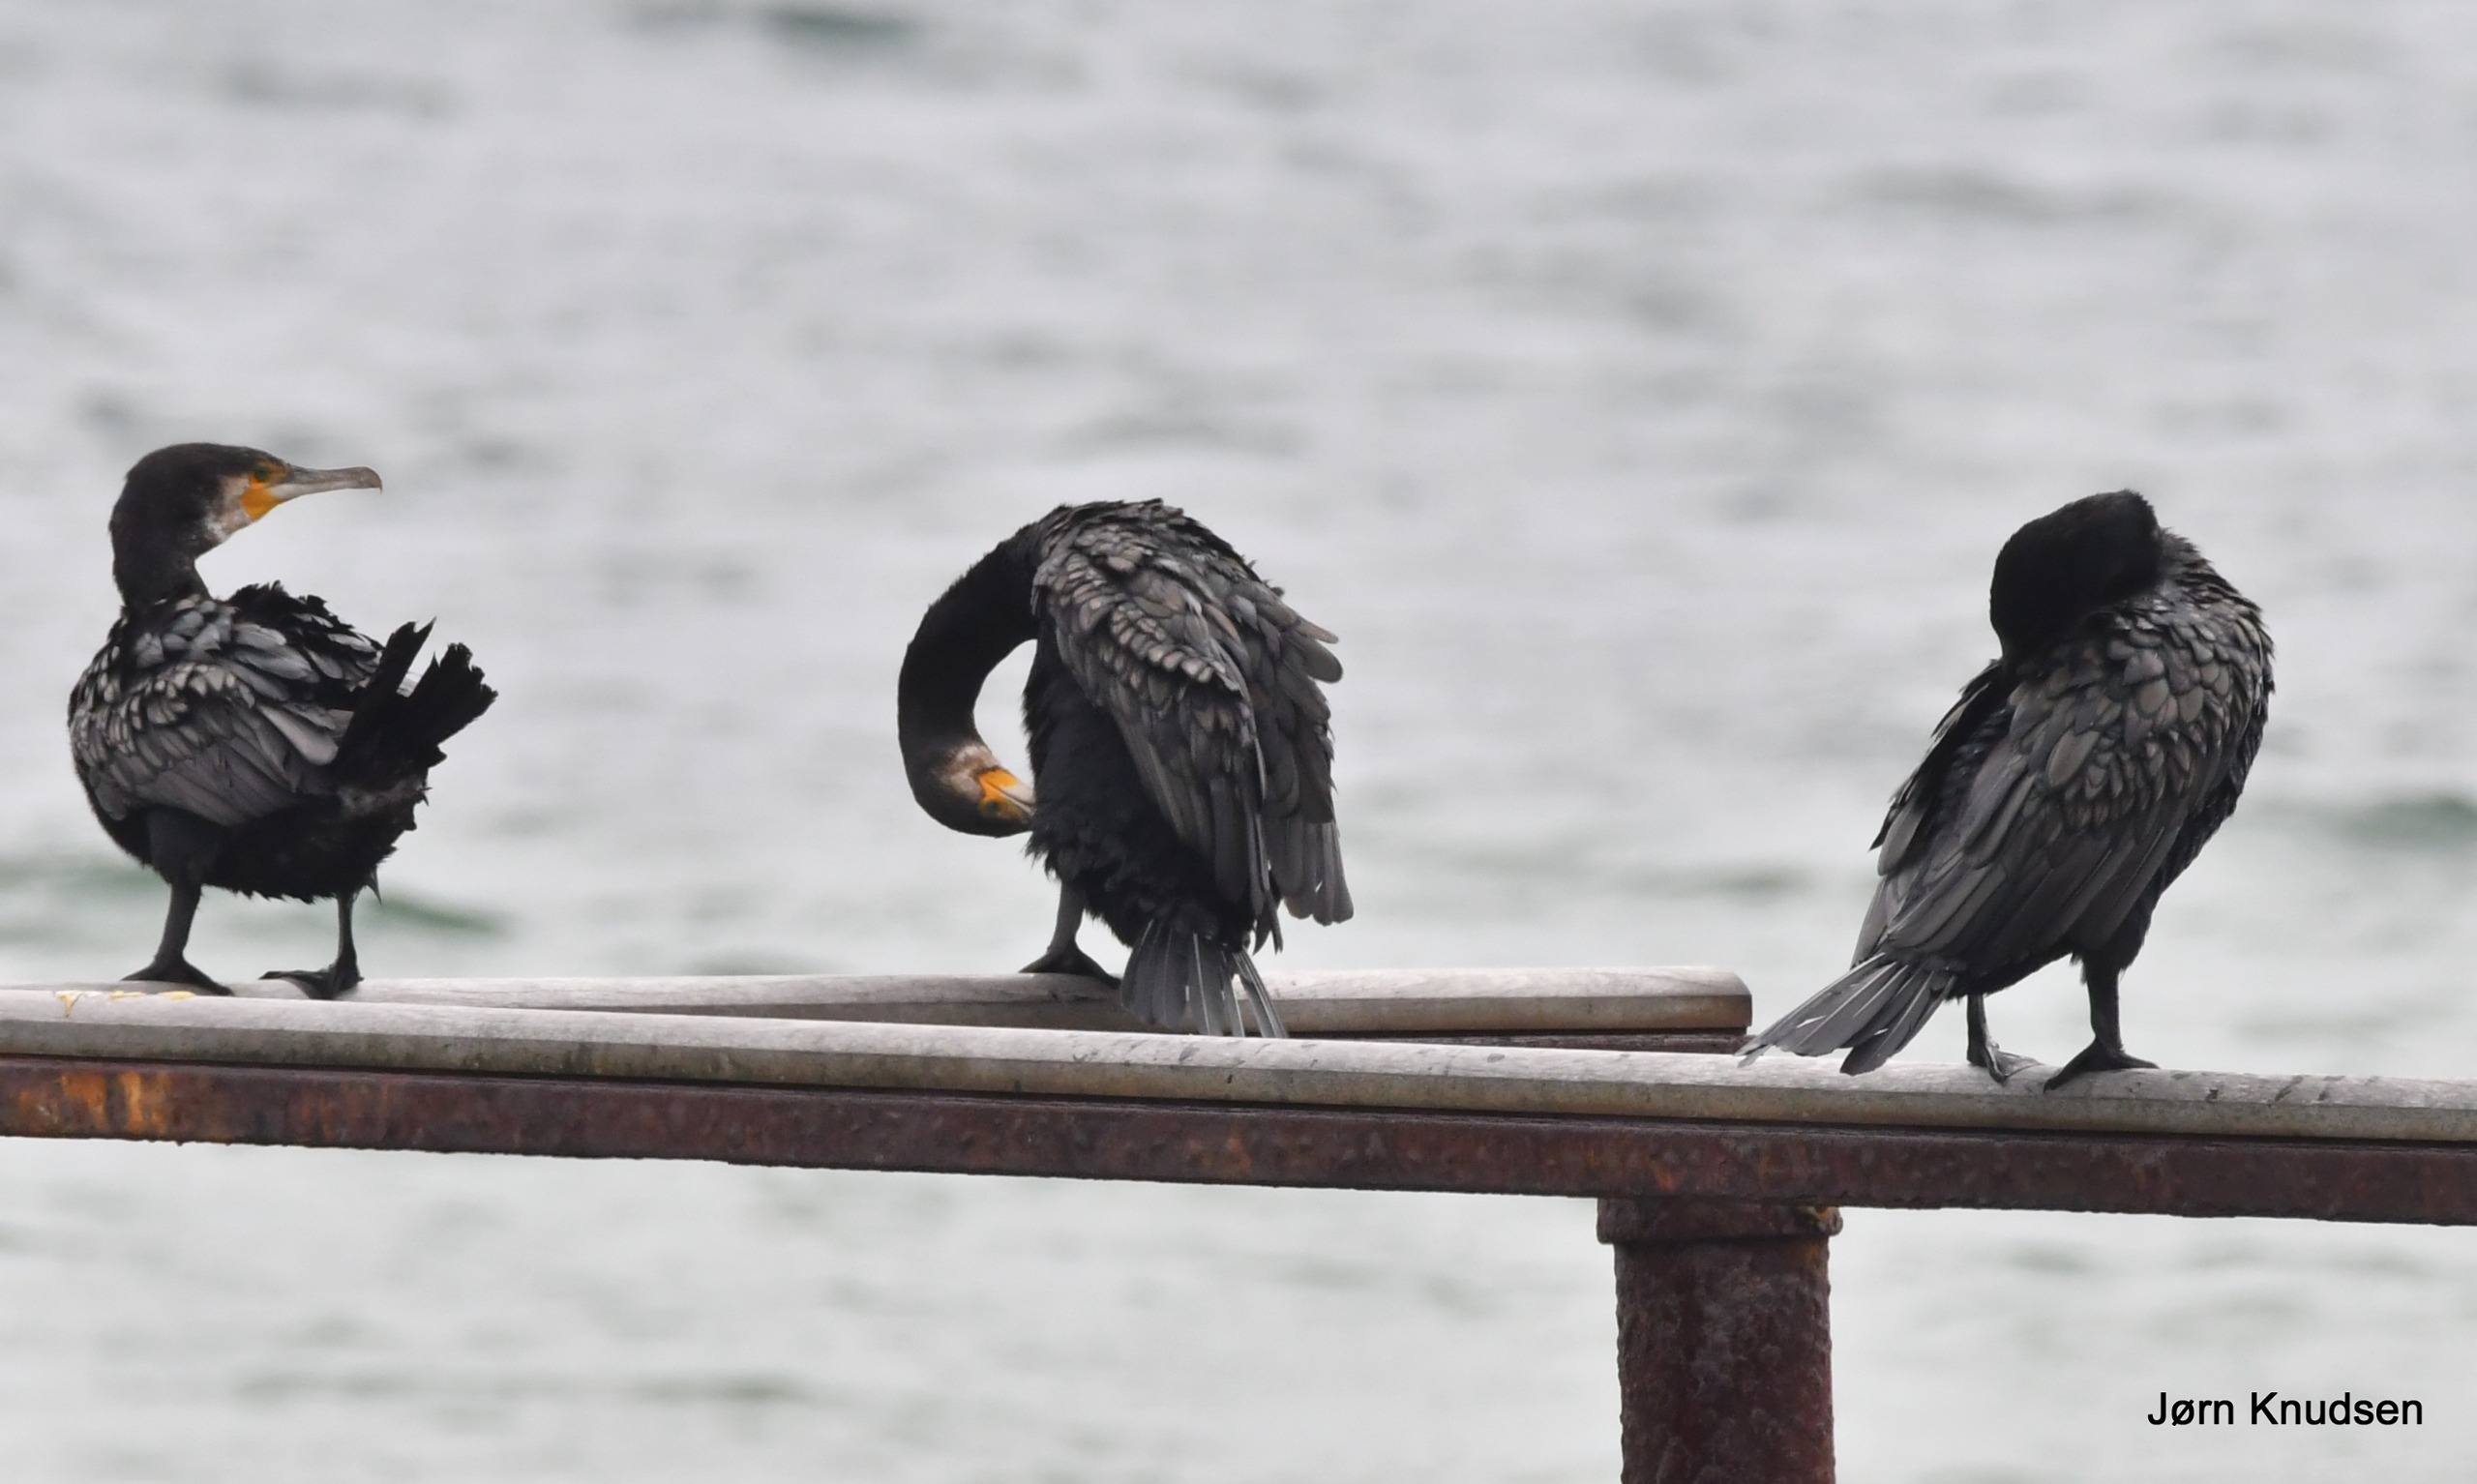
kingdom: Animalia
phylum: Chordata
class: Aves
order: Suliformes
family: Phalacrocoracidae
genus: Phalacrocorax
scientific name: Phalacrocorax carbo
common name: Skarv
